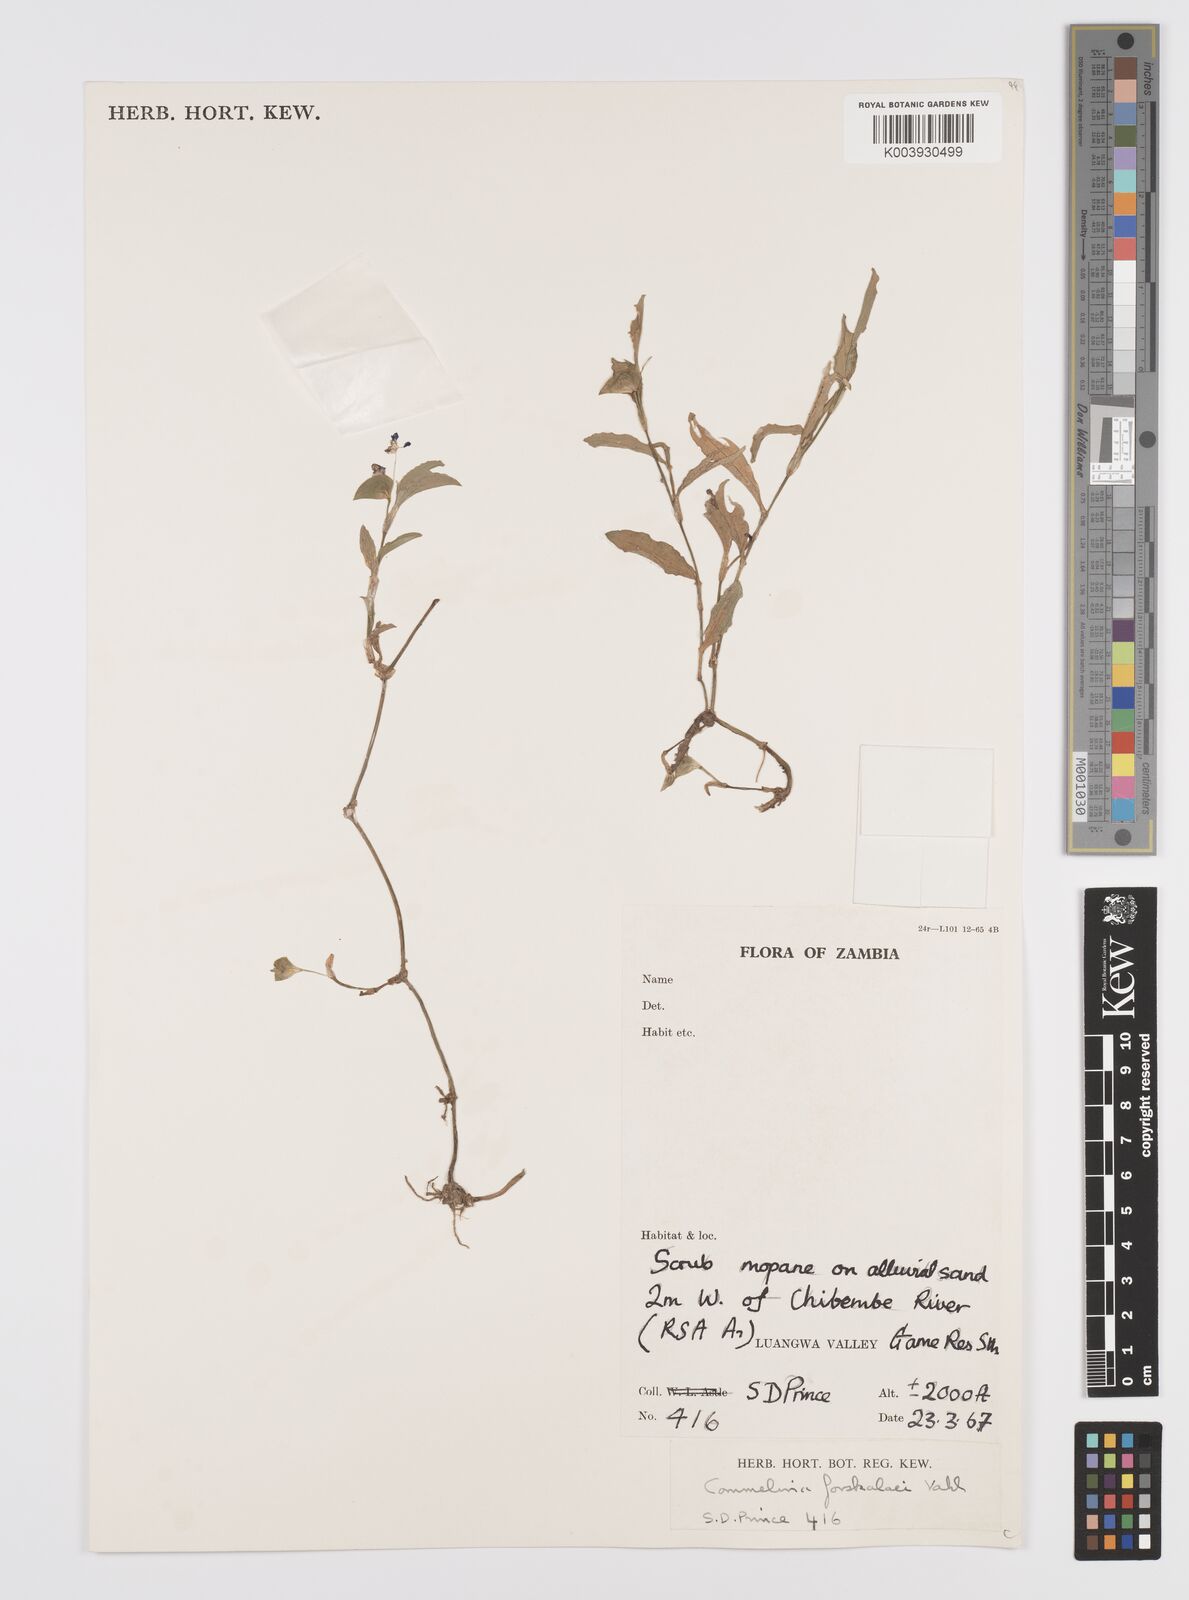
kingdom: Plantae
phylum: Tracheophyta
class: Liliopsida
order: Commelinales
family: Commelinaceae
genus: Commelina
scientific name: Commelina forskaolii
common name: Rat's ear
